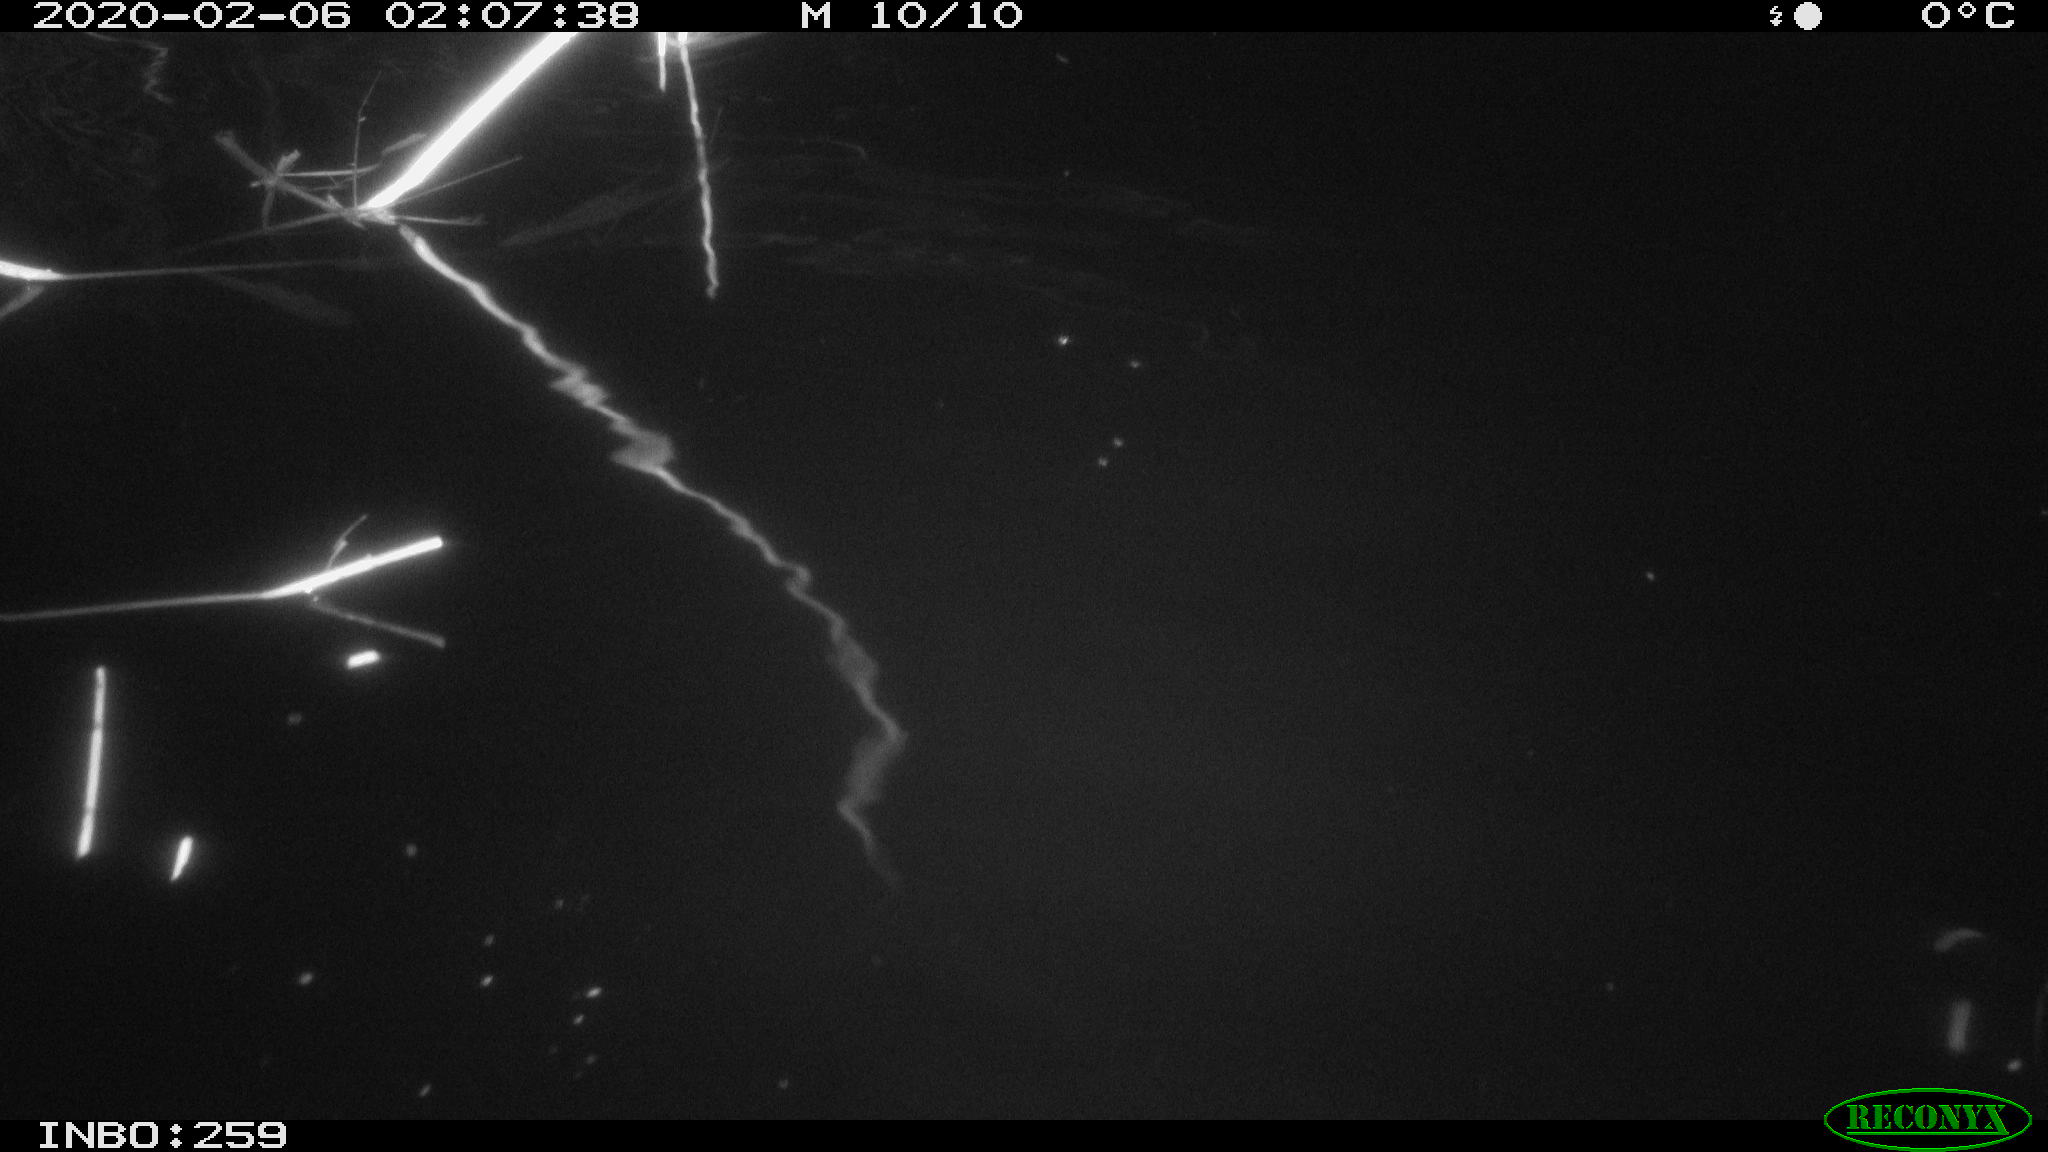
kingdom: Animalia
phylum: Chordata
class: Mammalia
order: Rodentia
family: Cricetidae
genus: Ondatra
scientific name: Ondatra zibethicus
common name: Muskrat
